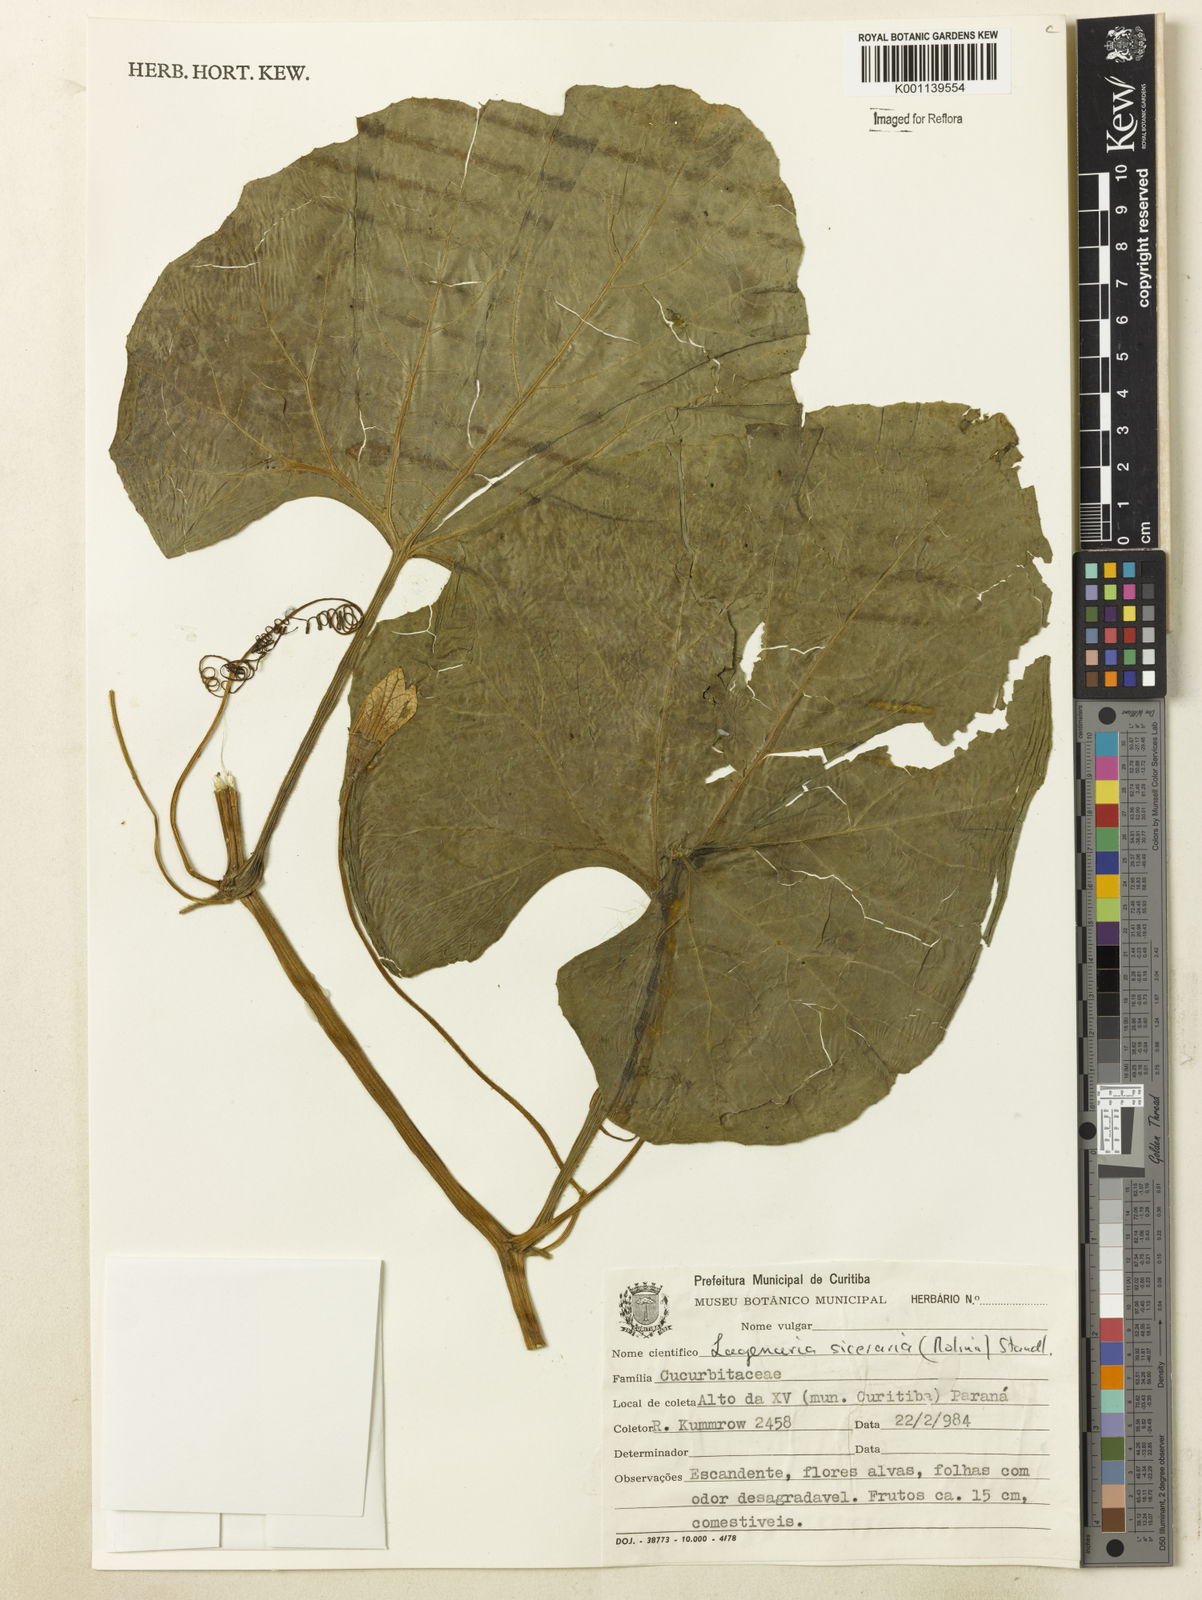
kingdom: Plantae
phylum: Tracheophyta
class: Magnoliopsida
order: Cucurbitales
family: Cucurbitaceae
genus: Lagenaria
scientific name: Lagenaria siceraria
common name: Bottle gourd
